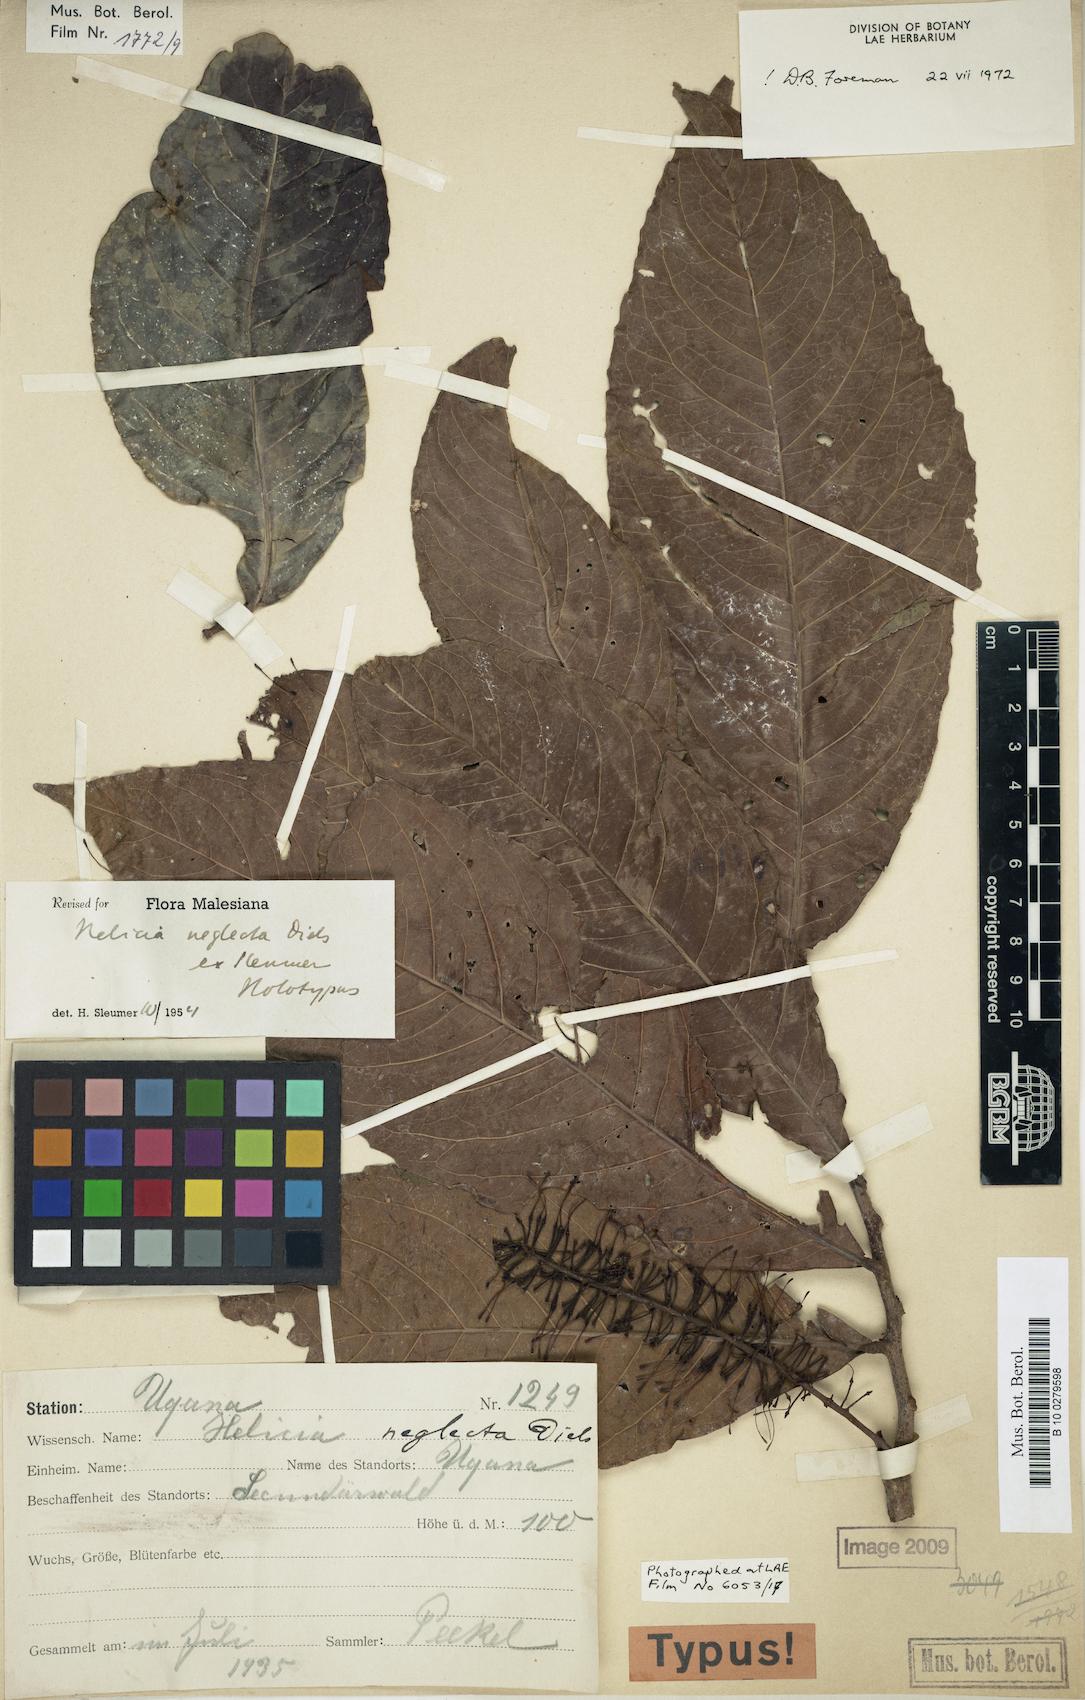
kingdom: Plantae
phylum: Tracheophyta
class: Magnoliopsida
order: Proteales
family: Proteaceae
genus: Helicia
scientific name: Helicia neglecta
